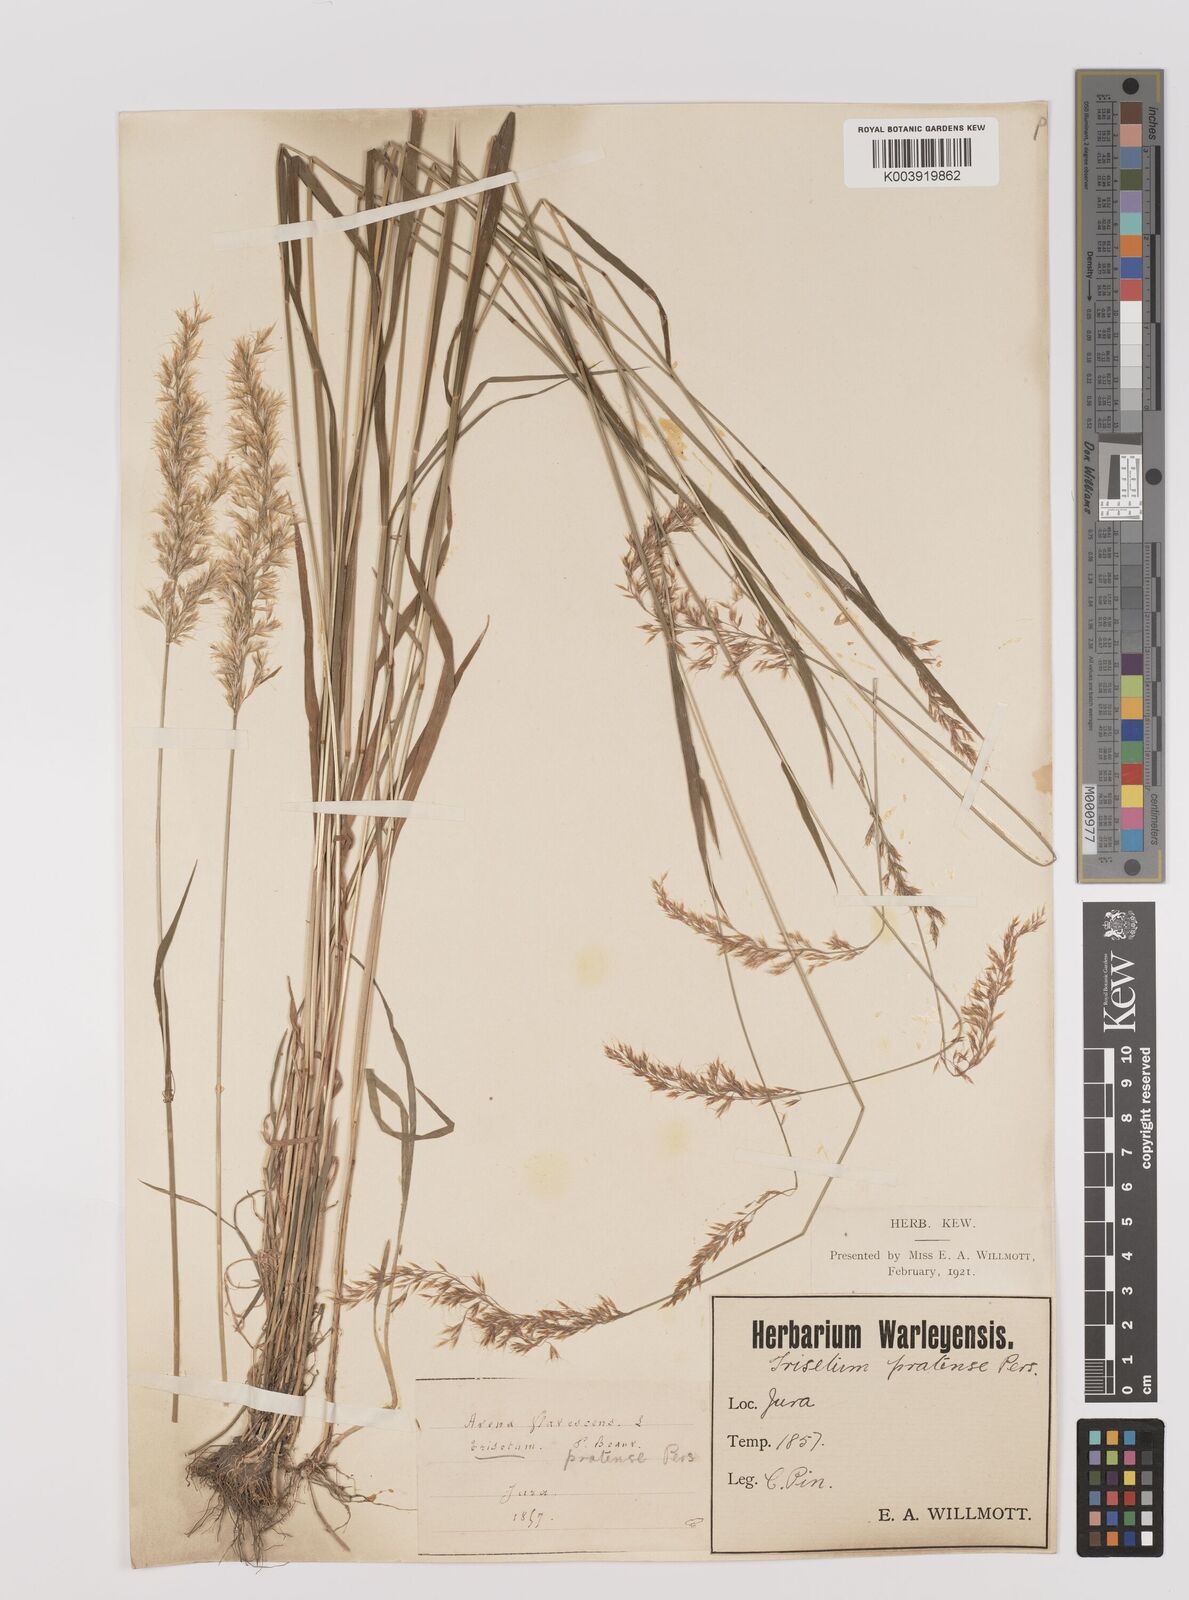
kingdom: Plantae
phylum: Tracheophyta
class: Liliopsida
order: Poales
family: Poaceae
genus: Trisetum
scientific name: Trisetum flavescens
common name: Yellow oat-grass
